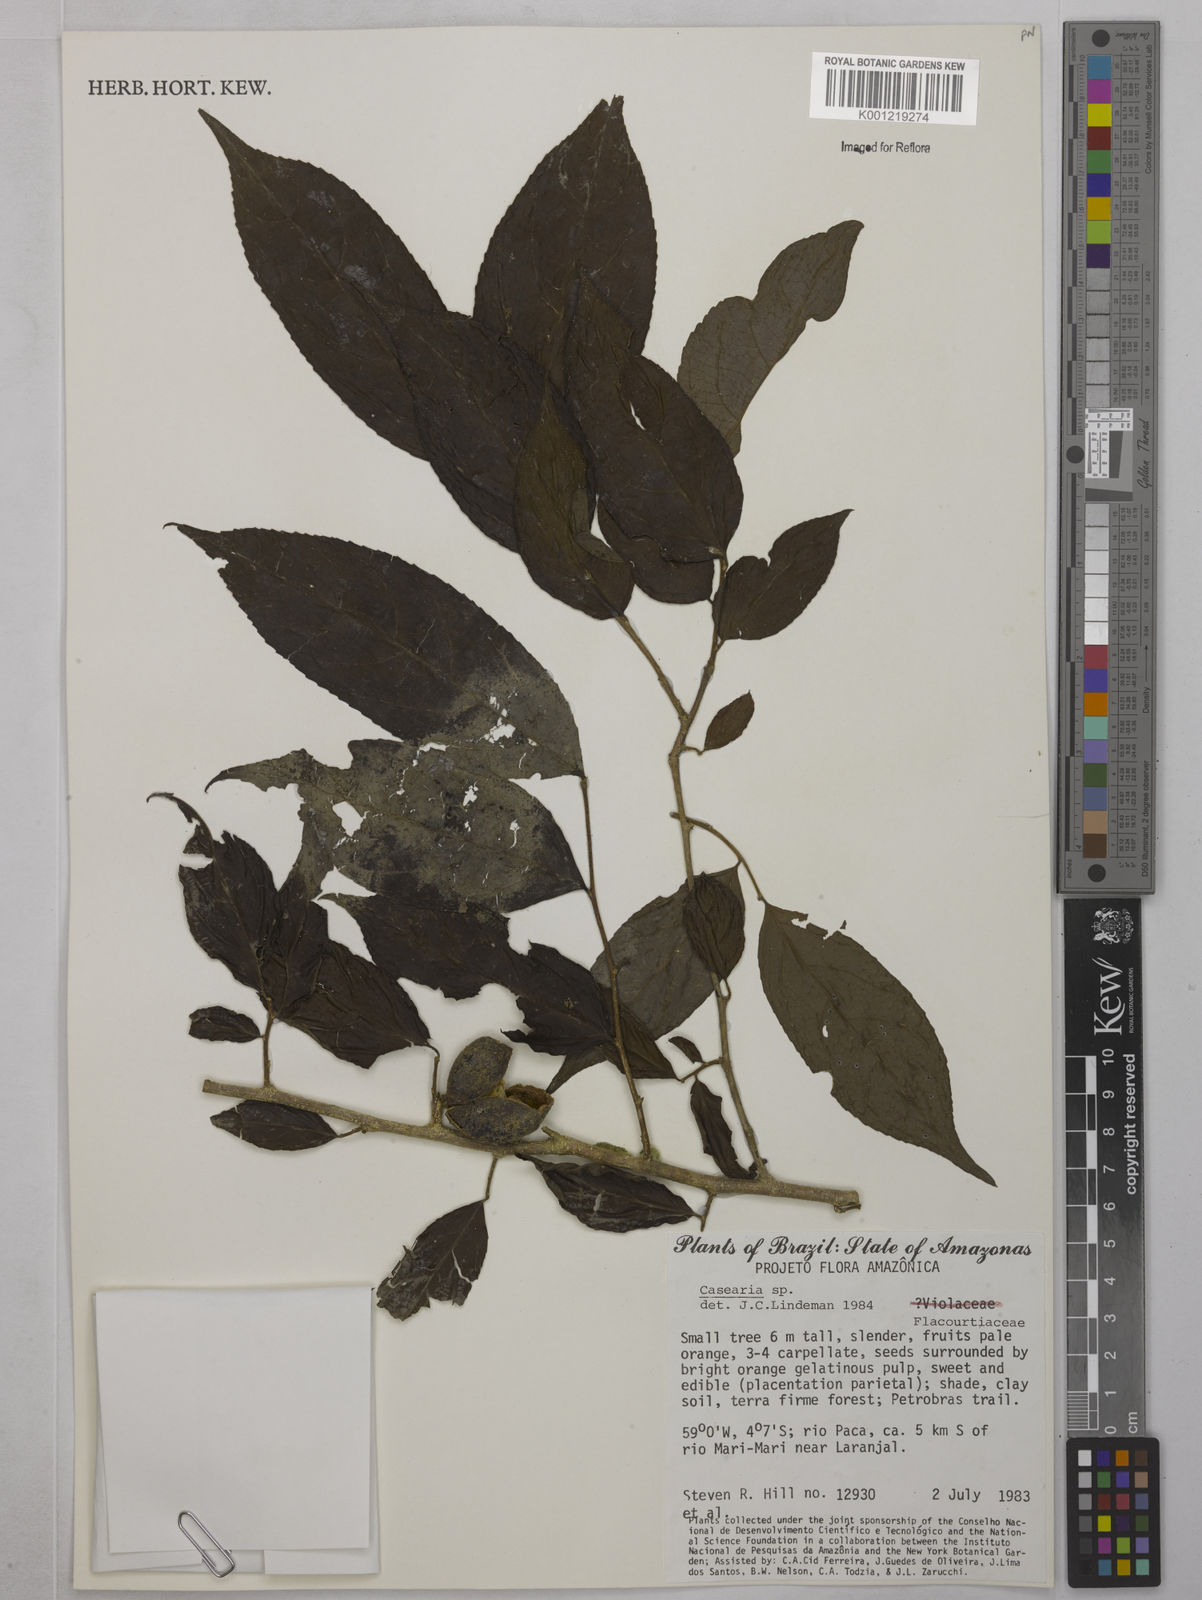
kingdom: Plantae
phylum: Tracheophyta
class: Magnoliopsida
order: Malpighiales
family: Salicaceae
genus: Casearia
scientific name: Casearia
